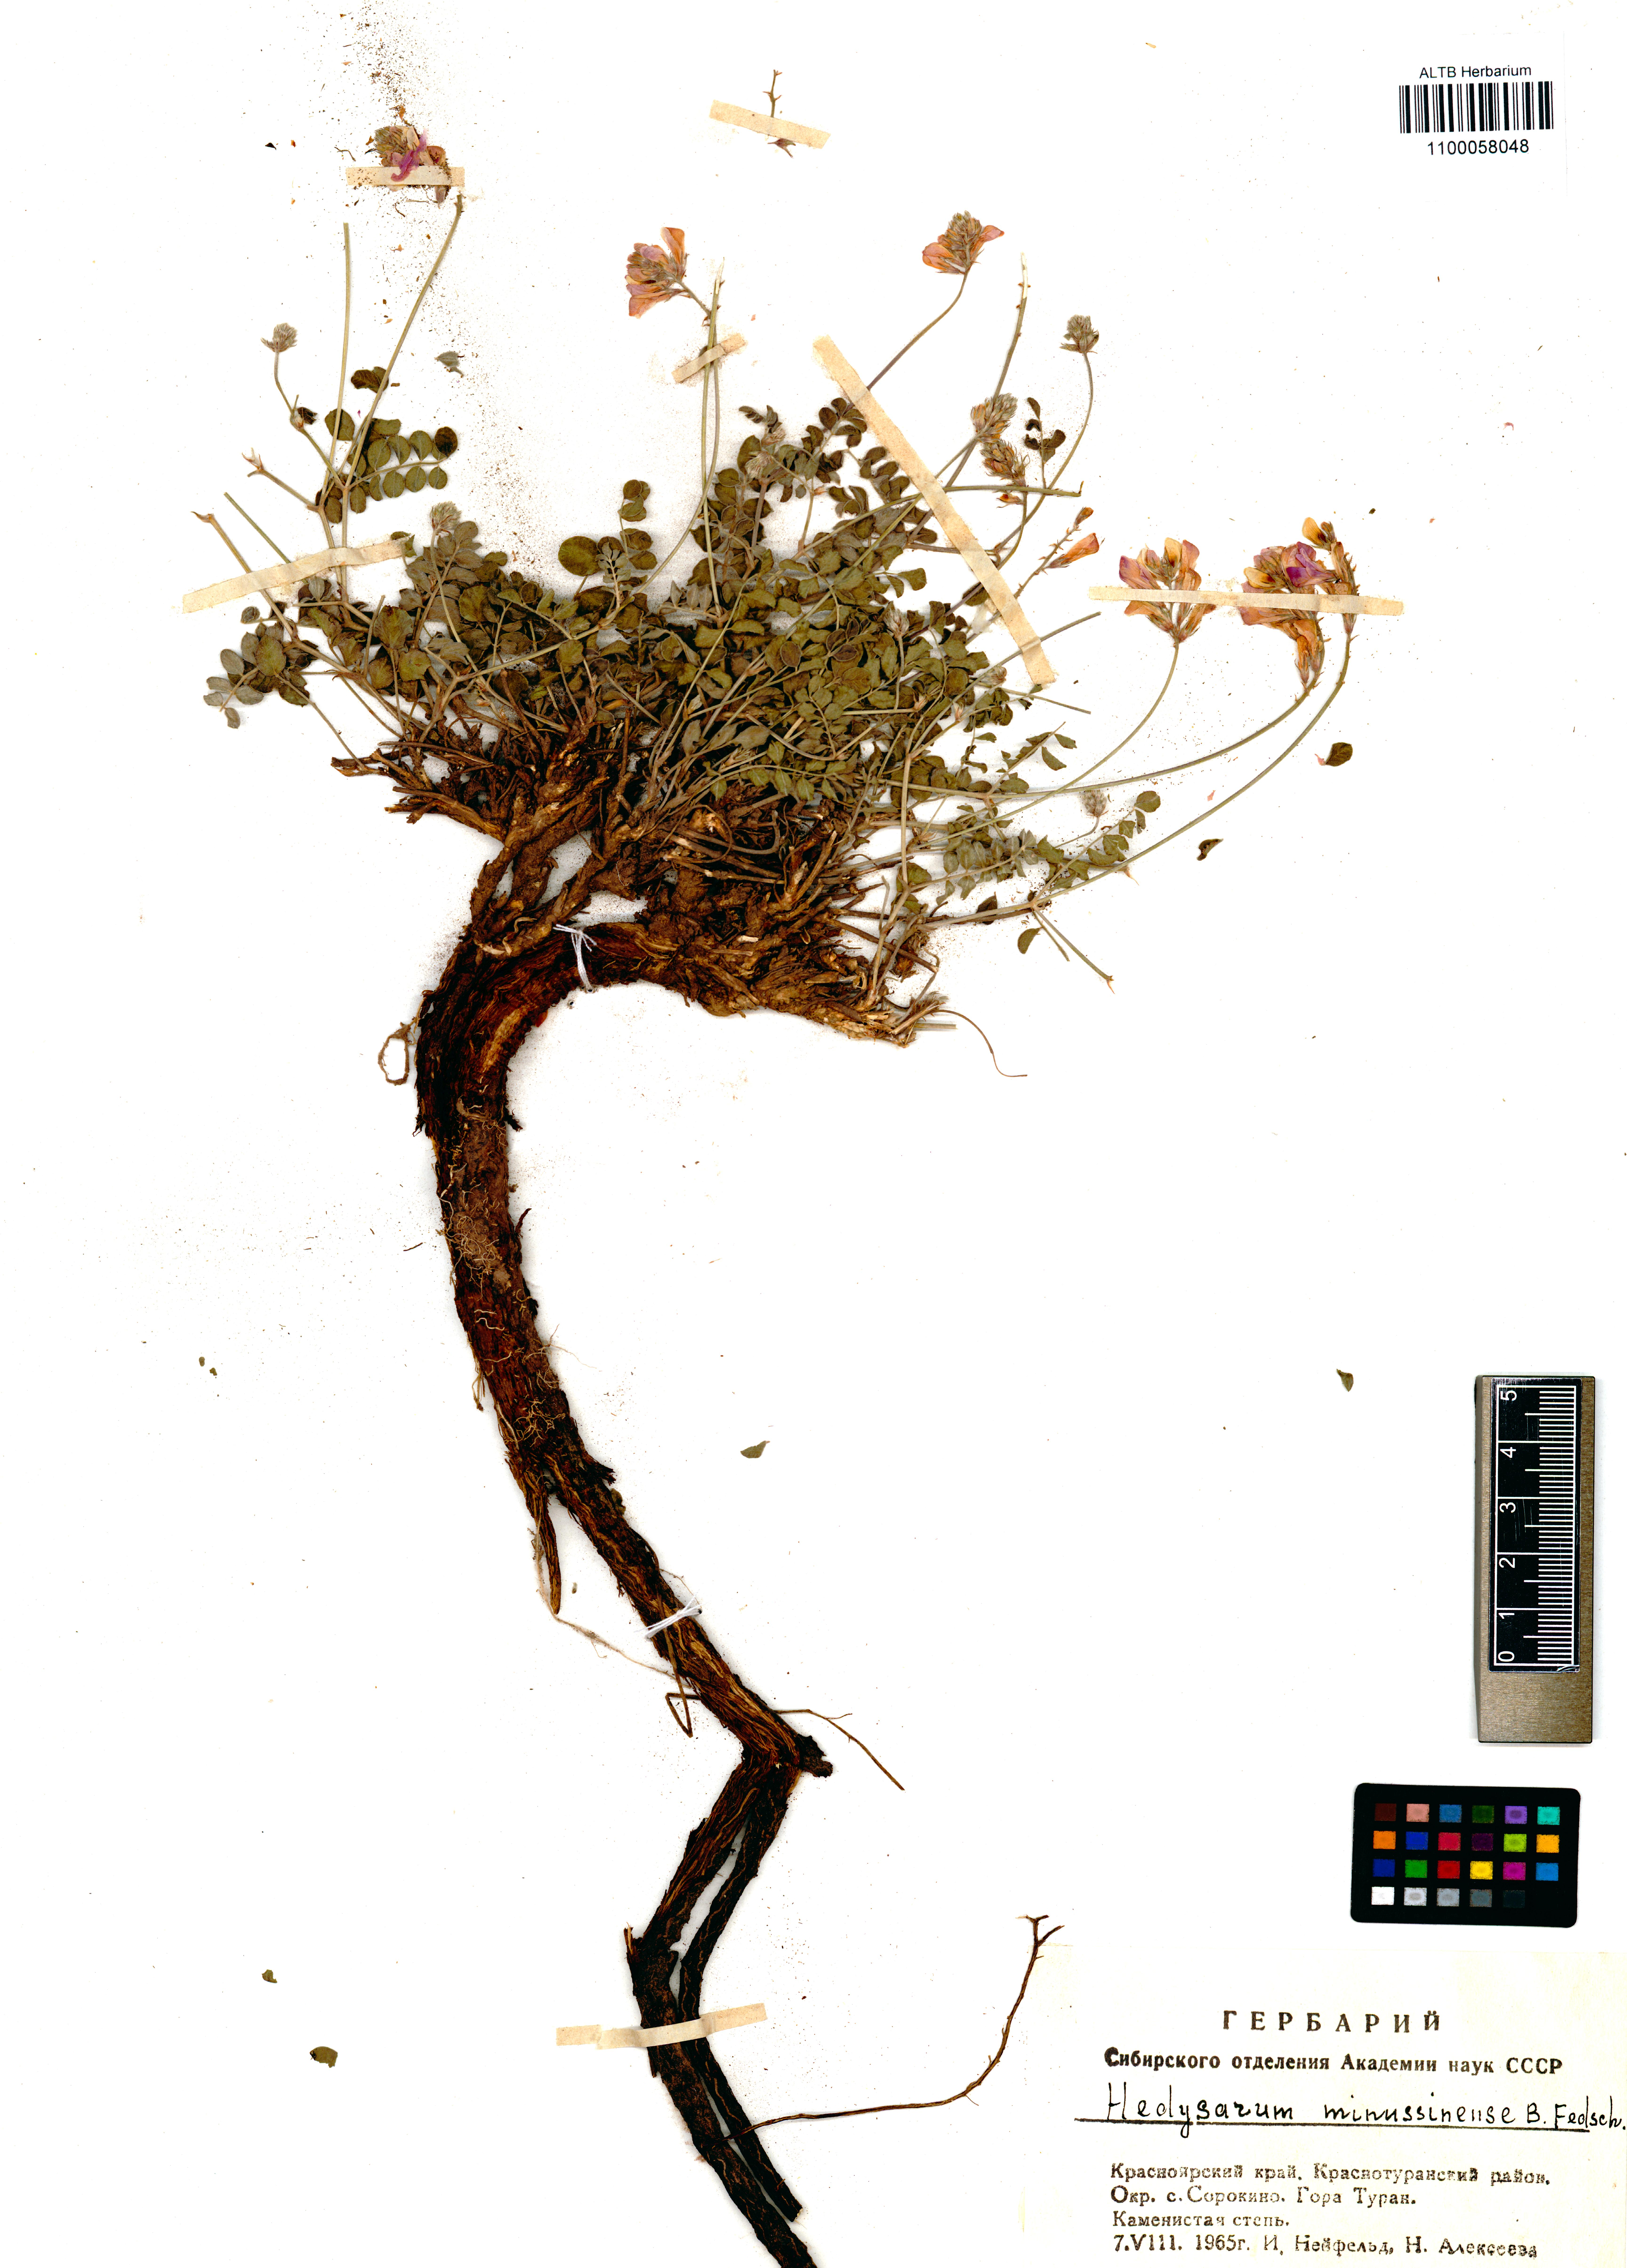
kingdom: Plantae
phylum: Tracheophyta
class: Magnoliopsida
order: Fabales
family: Fabaceae
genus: Hedysarum
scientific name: Hedysarum minussinense
